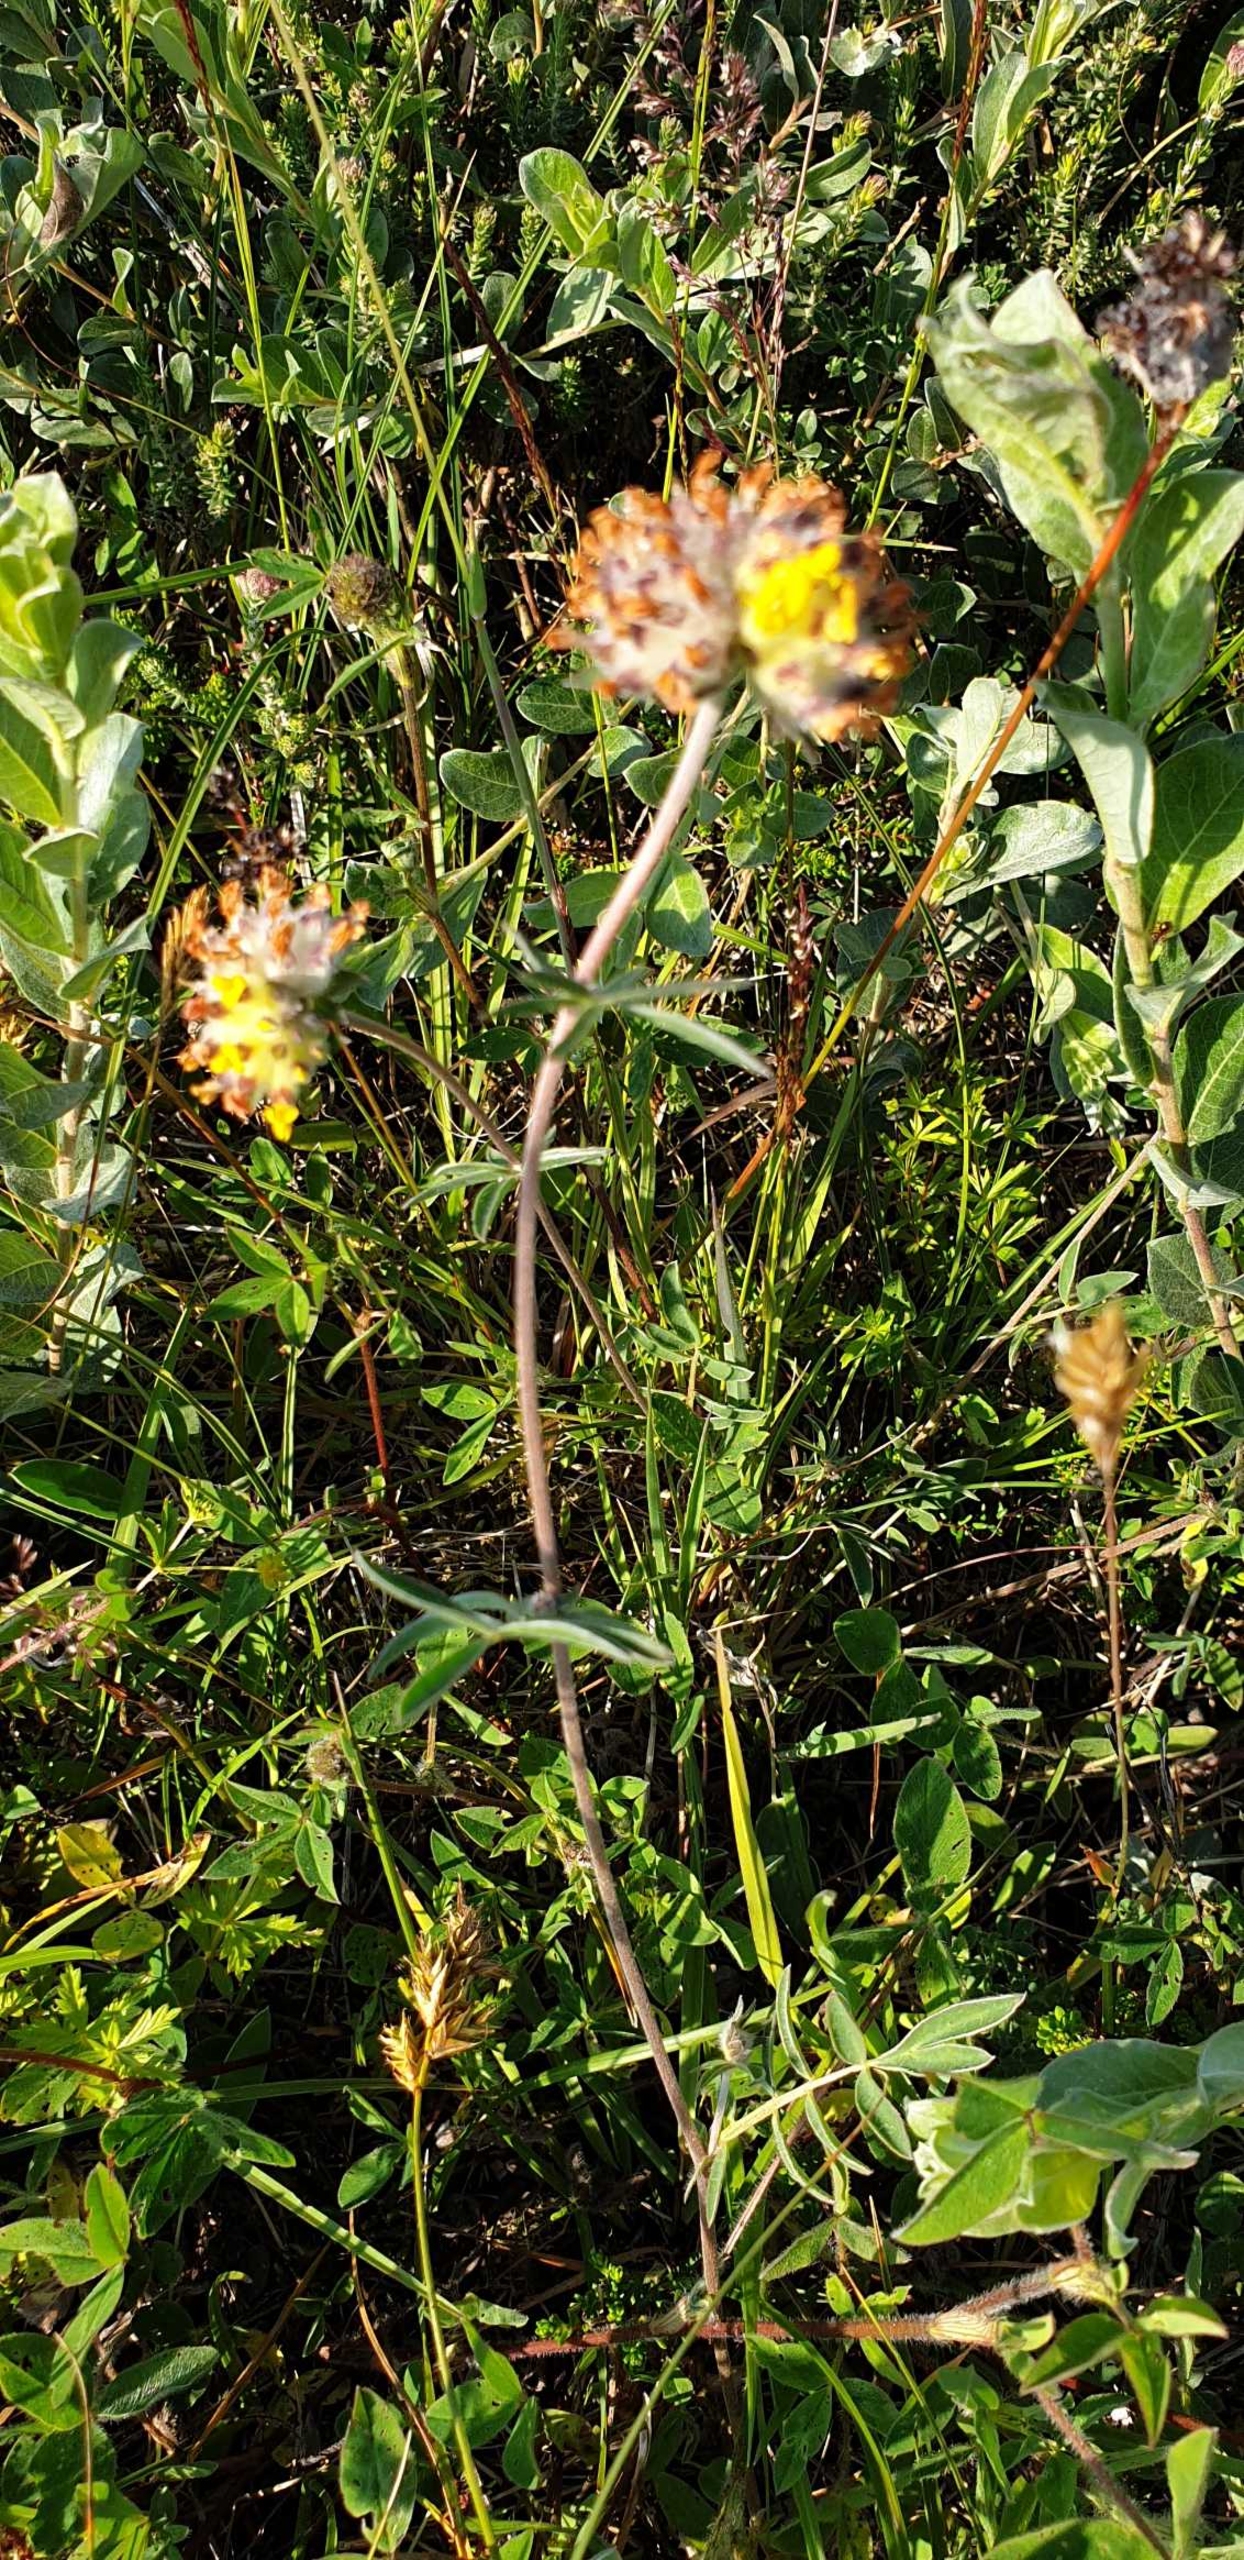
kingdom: Plantae
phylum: Tracheophyta
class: Magnoliopsida
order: Fabales
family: Fabaceae
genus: Anthyllis
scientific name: Anthyllis vulneraria
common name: Rundbælg
